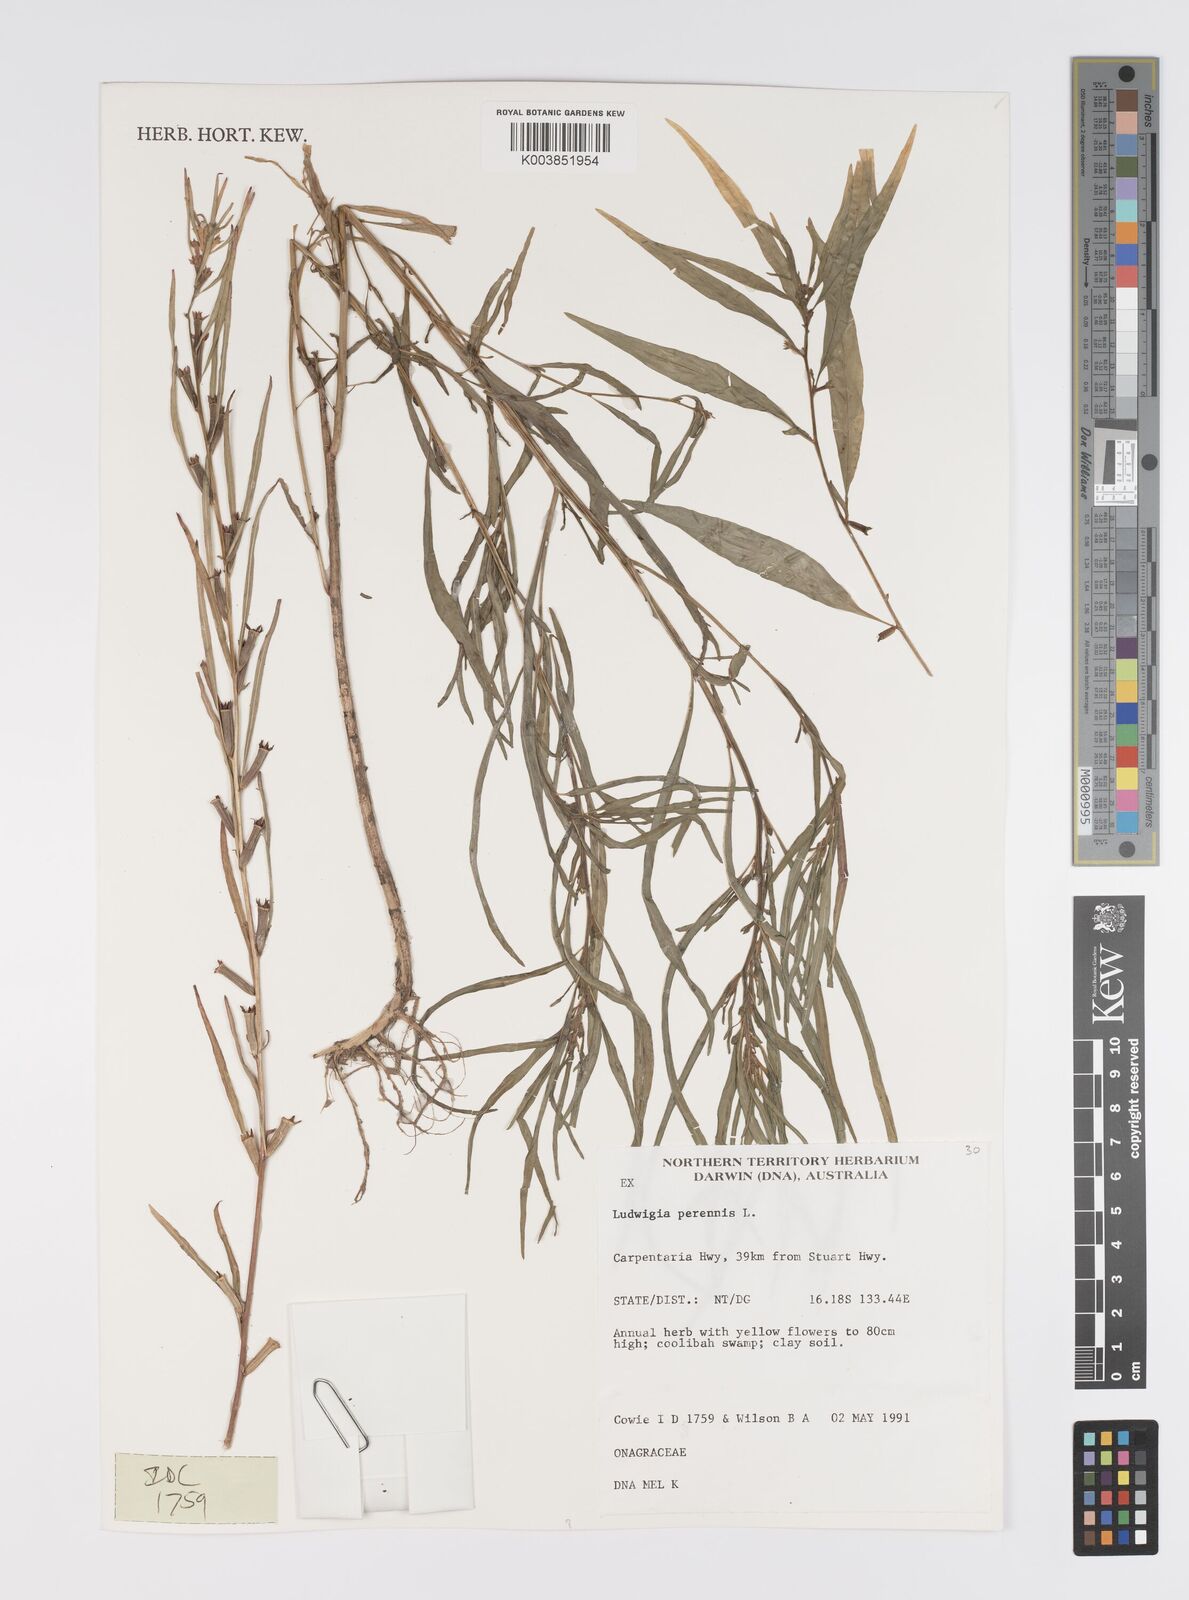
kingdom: Plantae
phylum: Tracheophyta
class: Magnoliopsida
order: Myrtales
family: Onagraceae
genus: Ludwigia
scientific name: Ludwigia perennis
